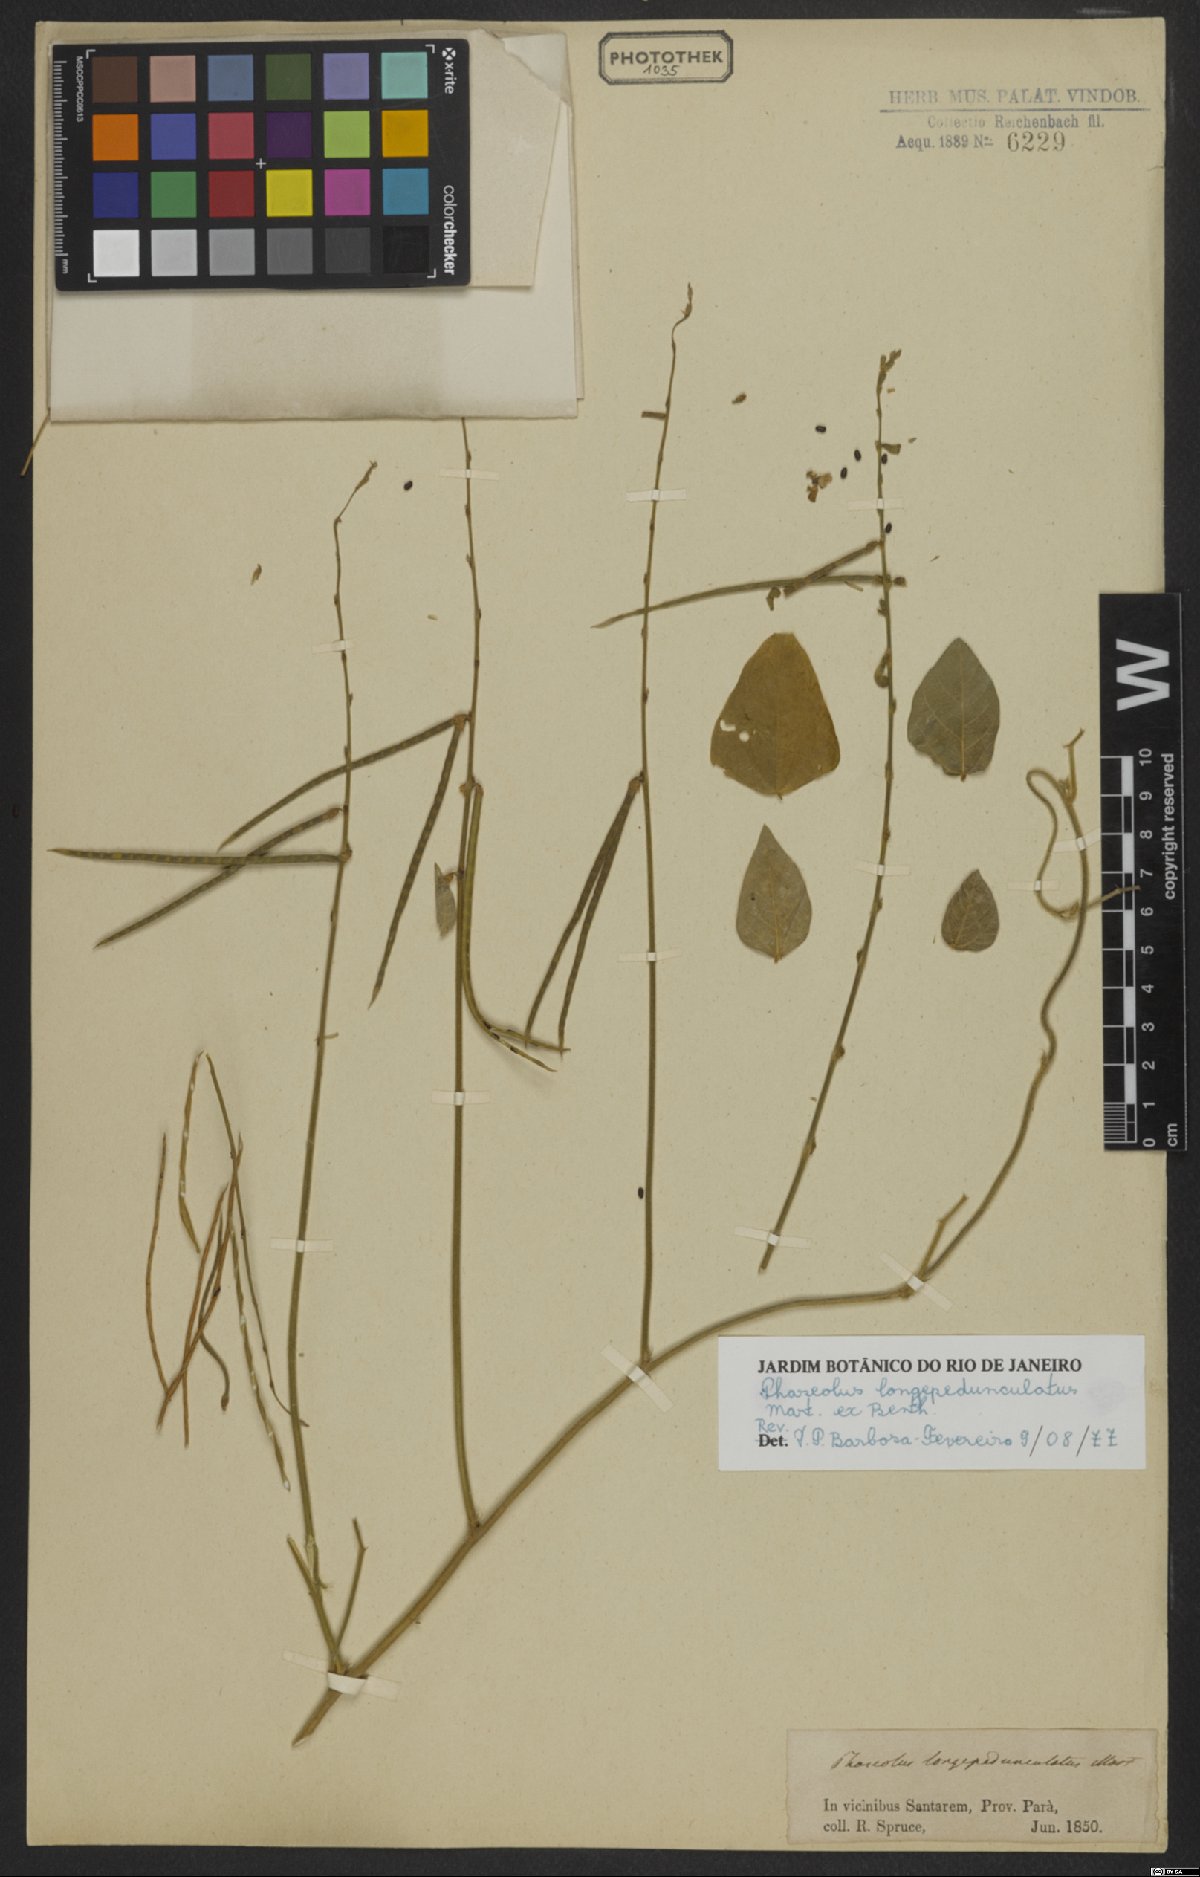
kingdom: Plantae
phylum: Tracheophyta
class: Magnoliopsida
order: Fabales
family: Fabaceae
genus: Macroptilium
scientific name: Macroptilium longepedunculatum
